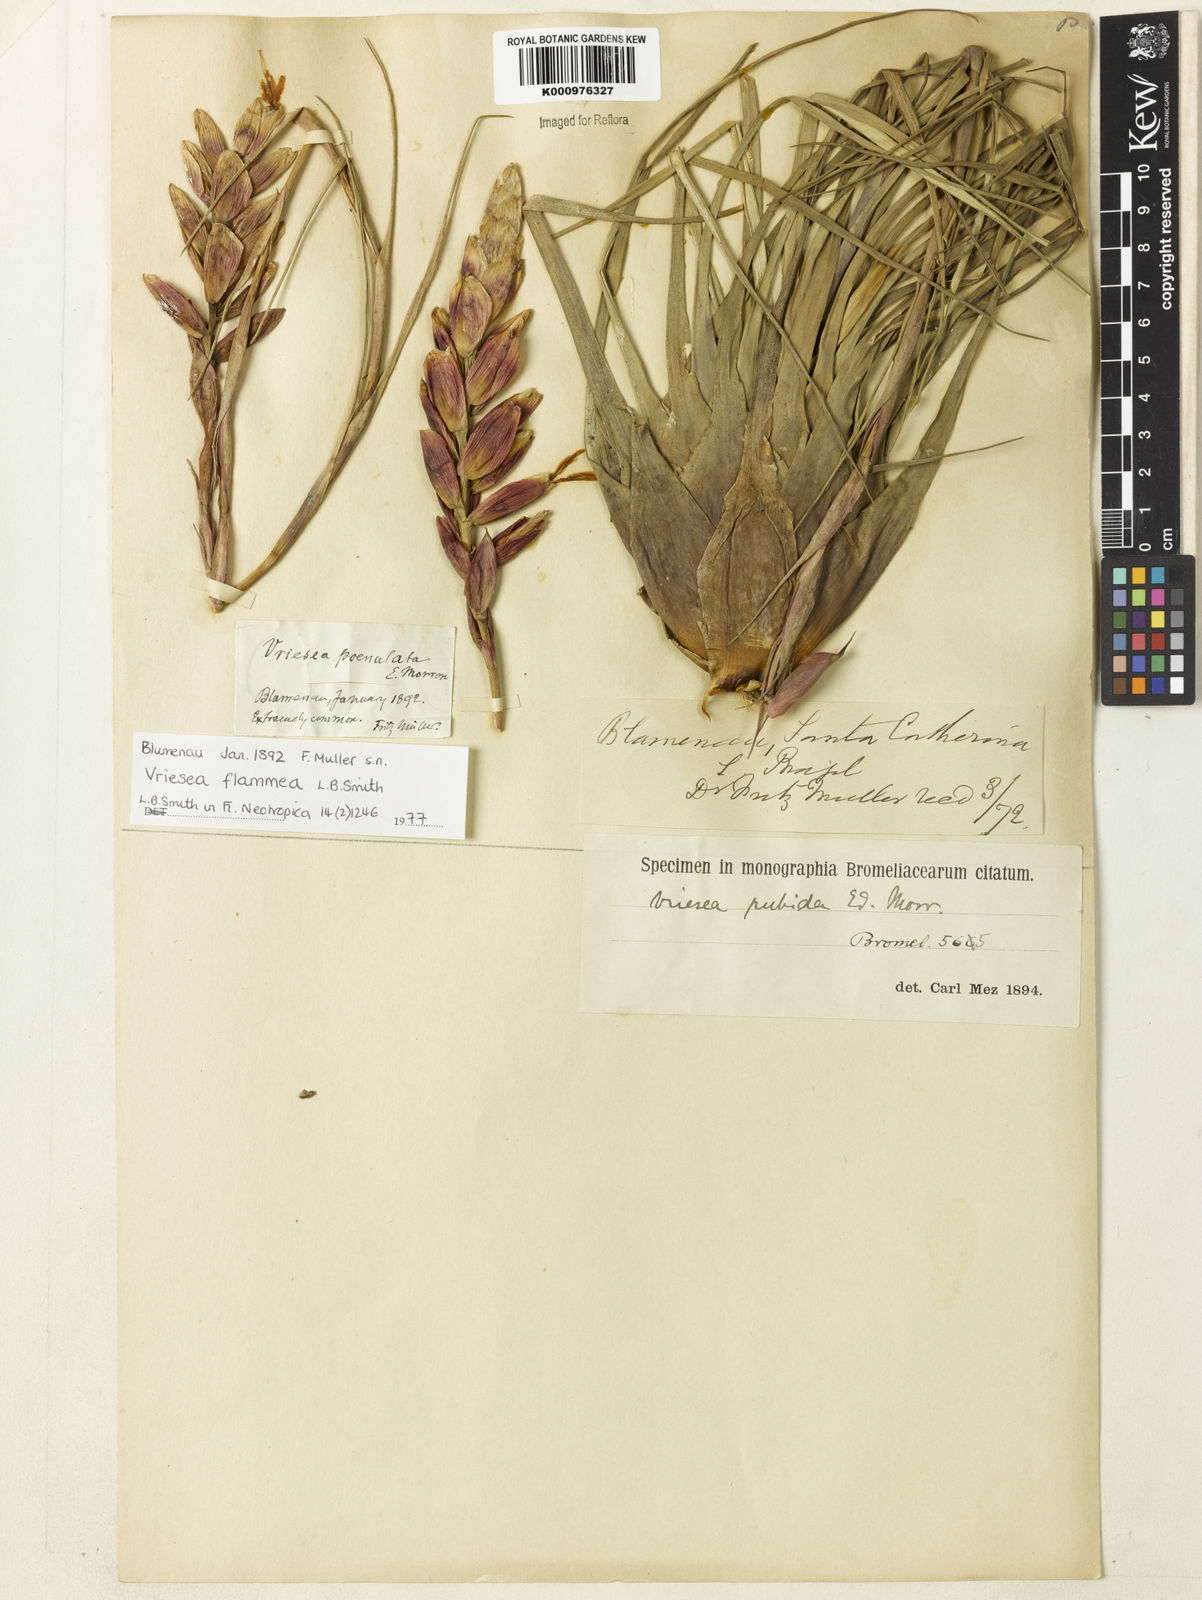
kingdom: Plantae
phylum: Tracheophyta
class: Liliopsida
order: Poales
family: Bromeliaceae
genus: Vriesea
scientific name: Vriesea flammea
